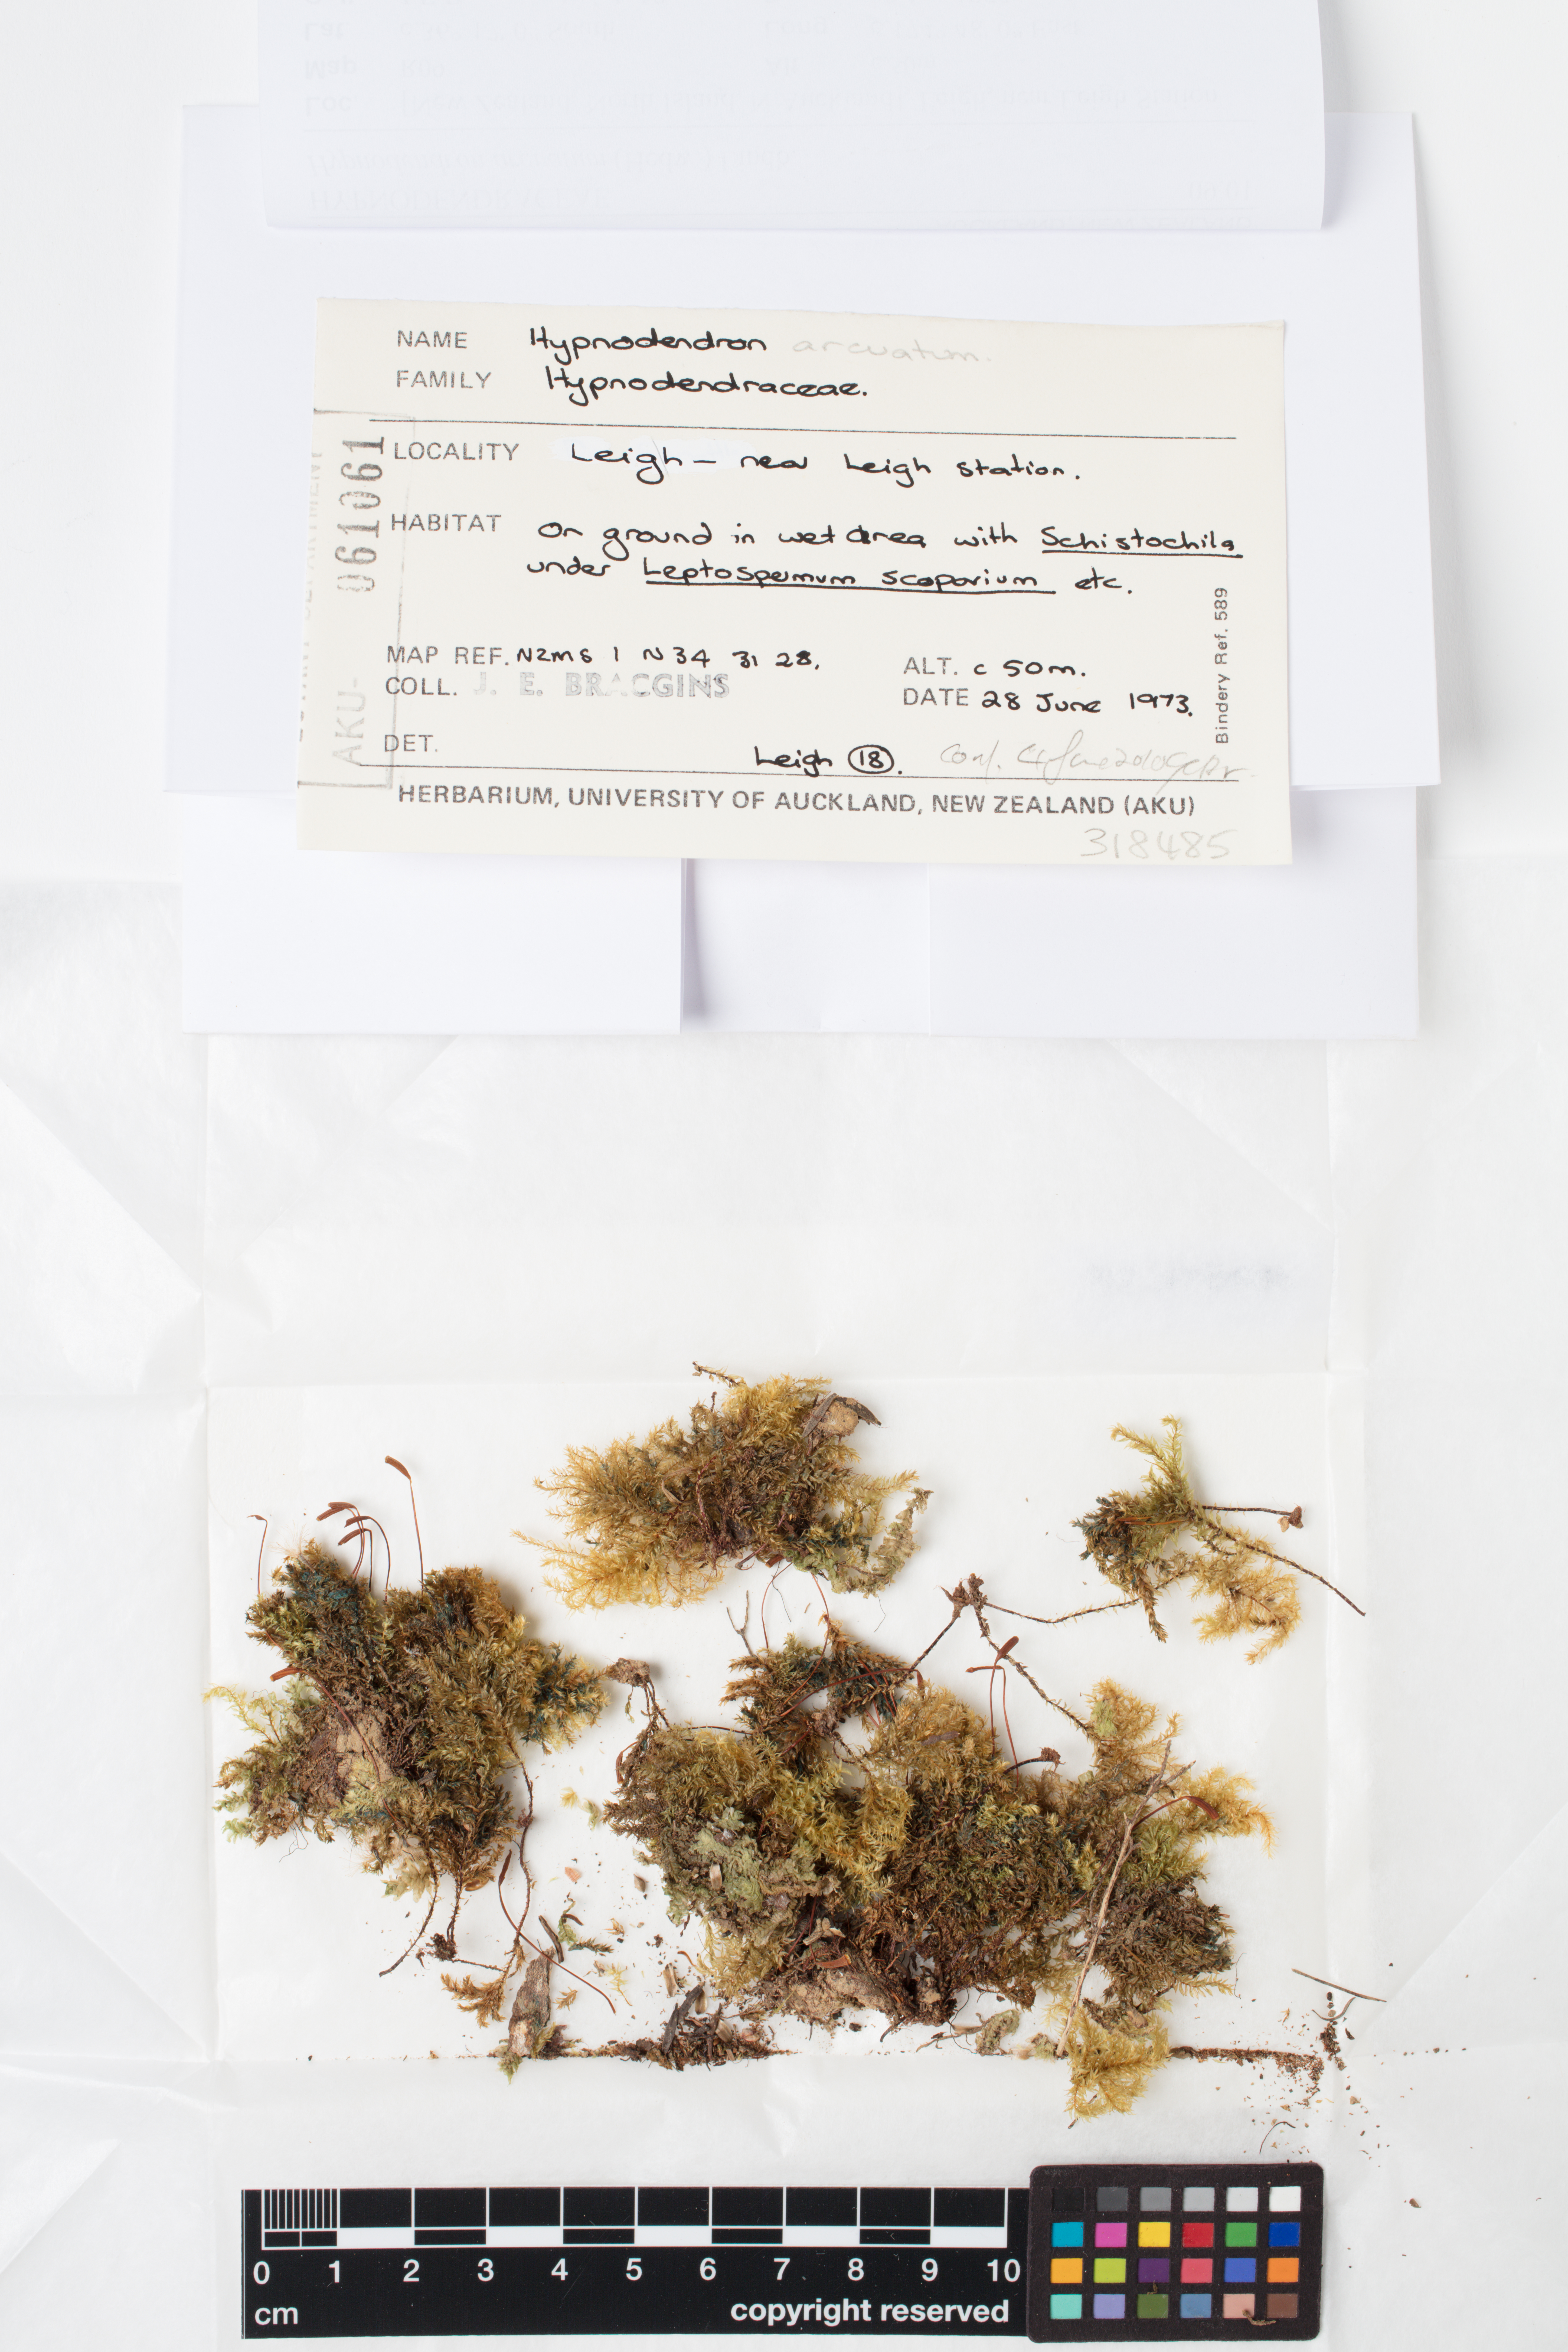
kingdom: Plantae
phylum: Bryophyta
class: Bryopsida
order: Hypnodendrales
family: Spiridentaceae
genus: Hypnodendron
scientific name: Hypnodendron arcuatum
